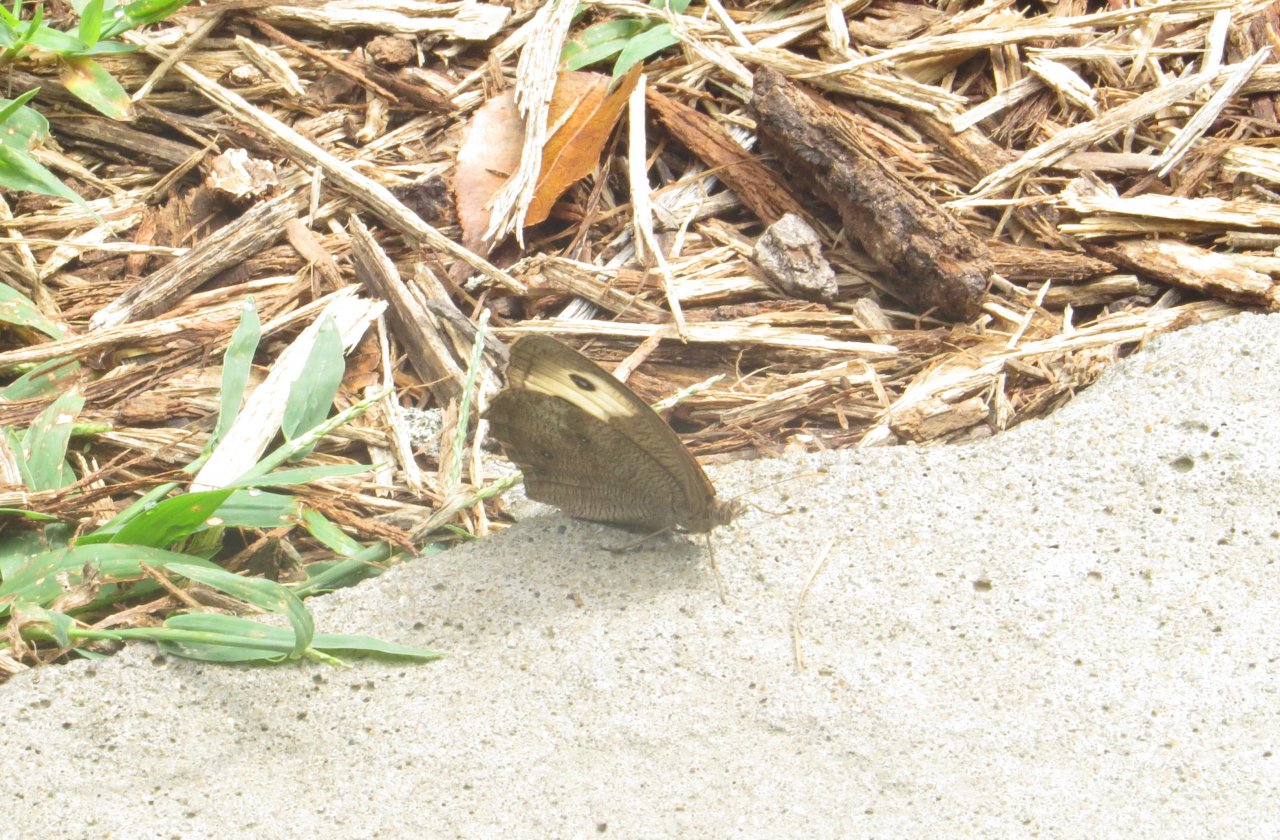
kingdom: Animalia
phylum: Arthropoda
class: Insecta
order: Lepidoptera
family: Nymphalidae
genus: Cercyonis
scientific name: Cercyonis pegala
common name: Common Wood-Nymph
